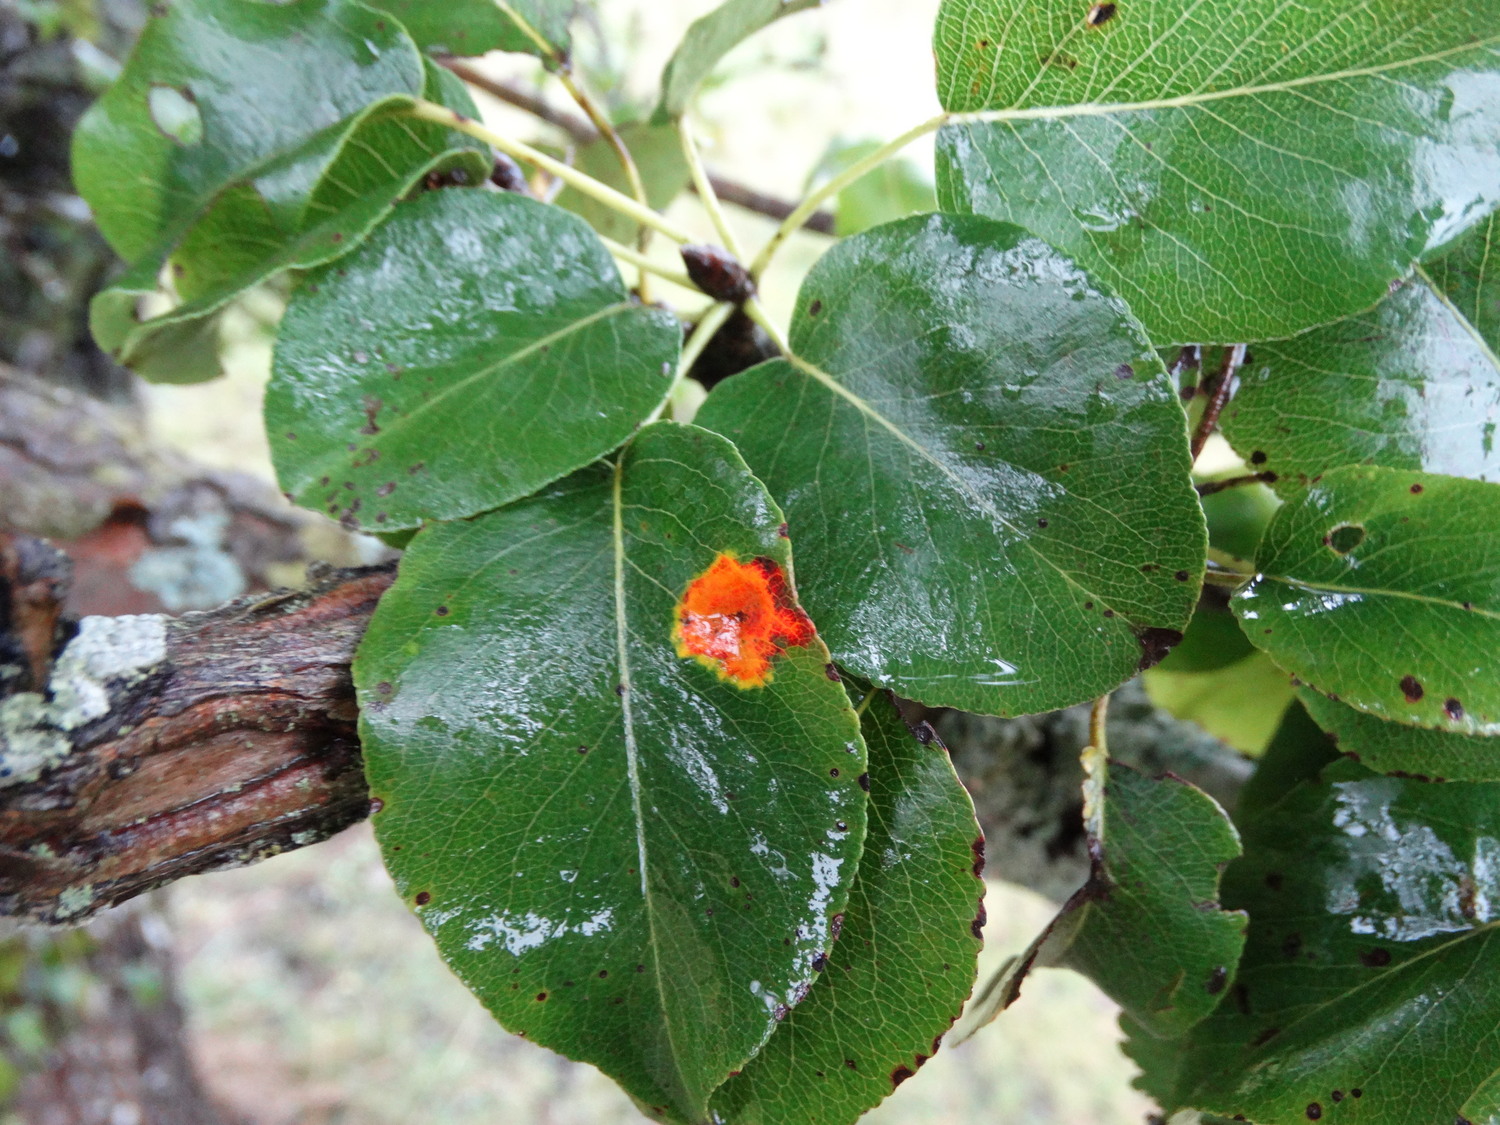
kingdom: Fungi
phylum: Basidiomycota
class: Pucciniomycetes
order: Pucciniales
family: Gymnosporangiaceae
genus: Gymnosporangium
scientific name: Gymnosporangium sabinae
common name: pæregitter-bævrerust
